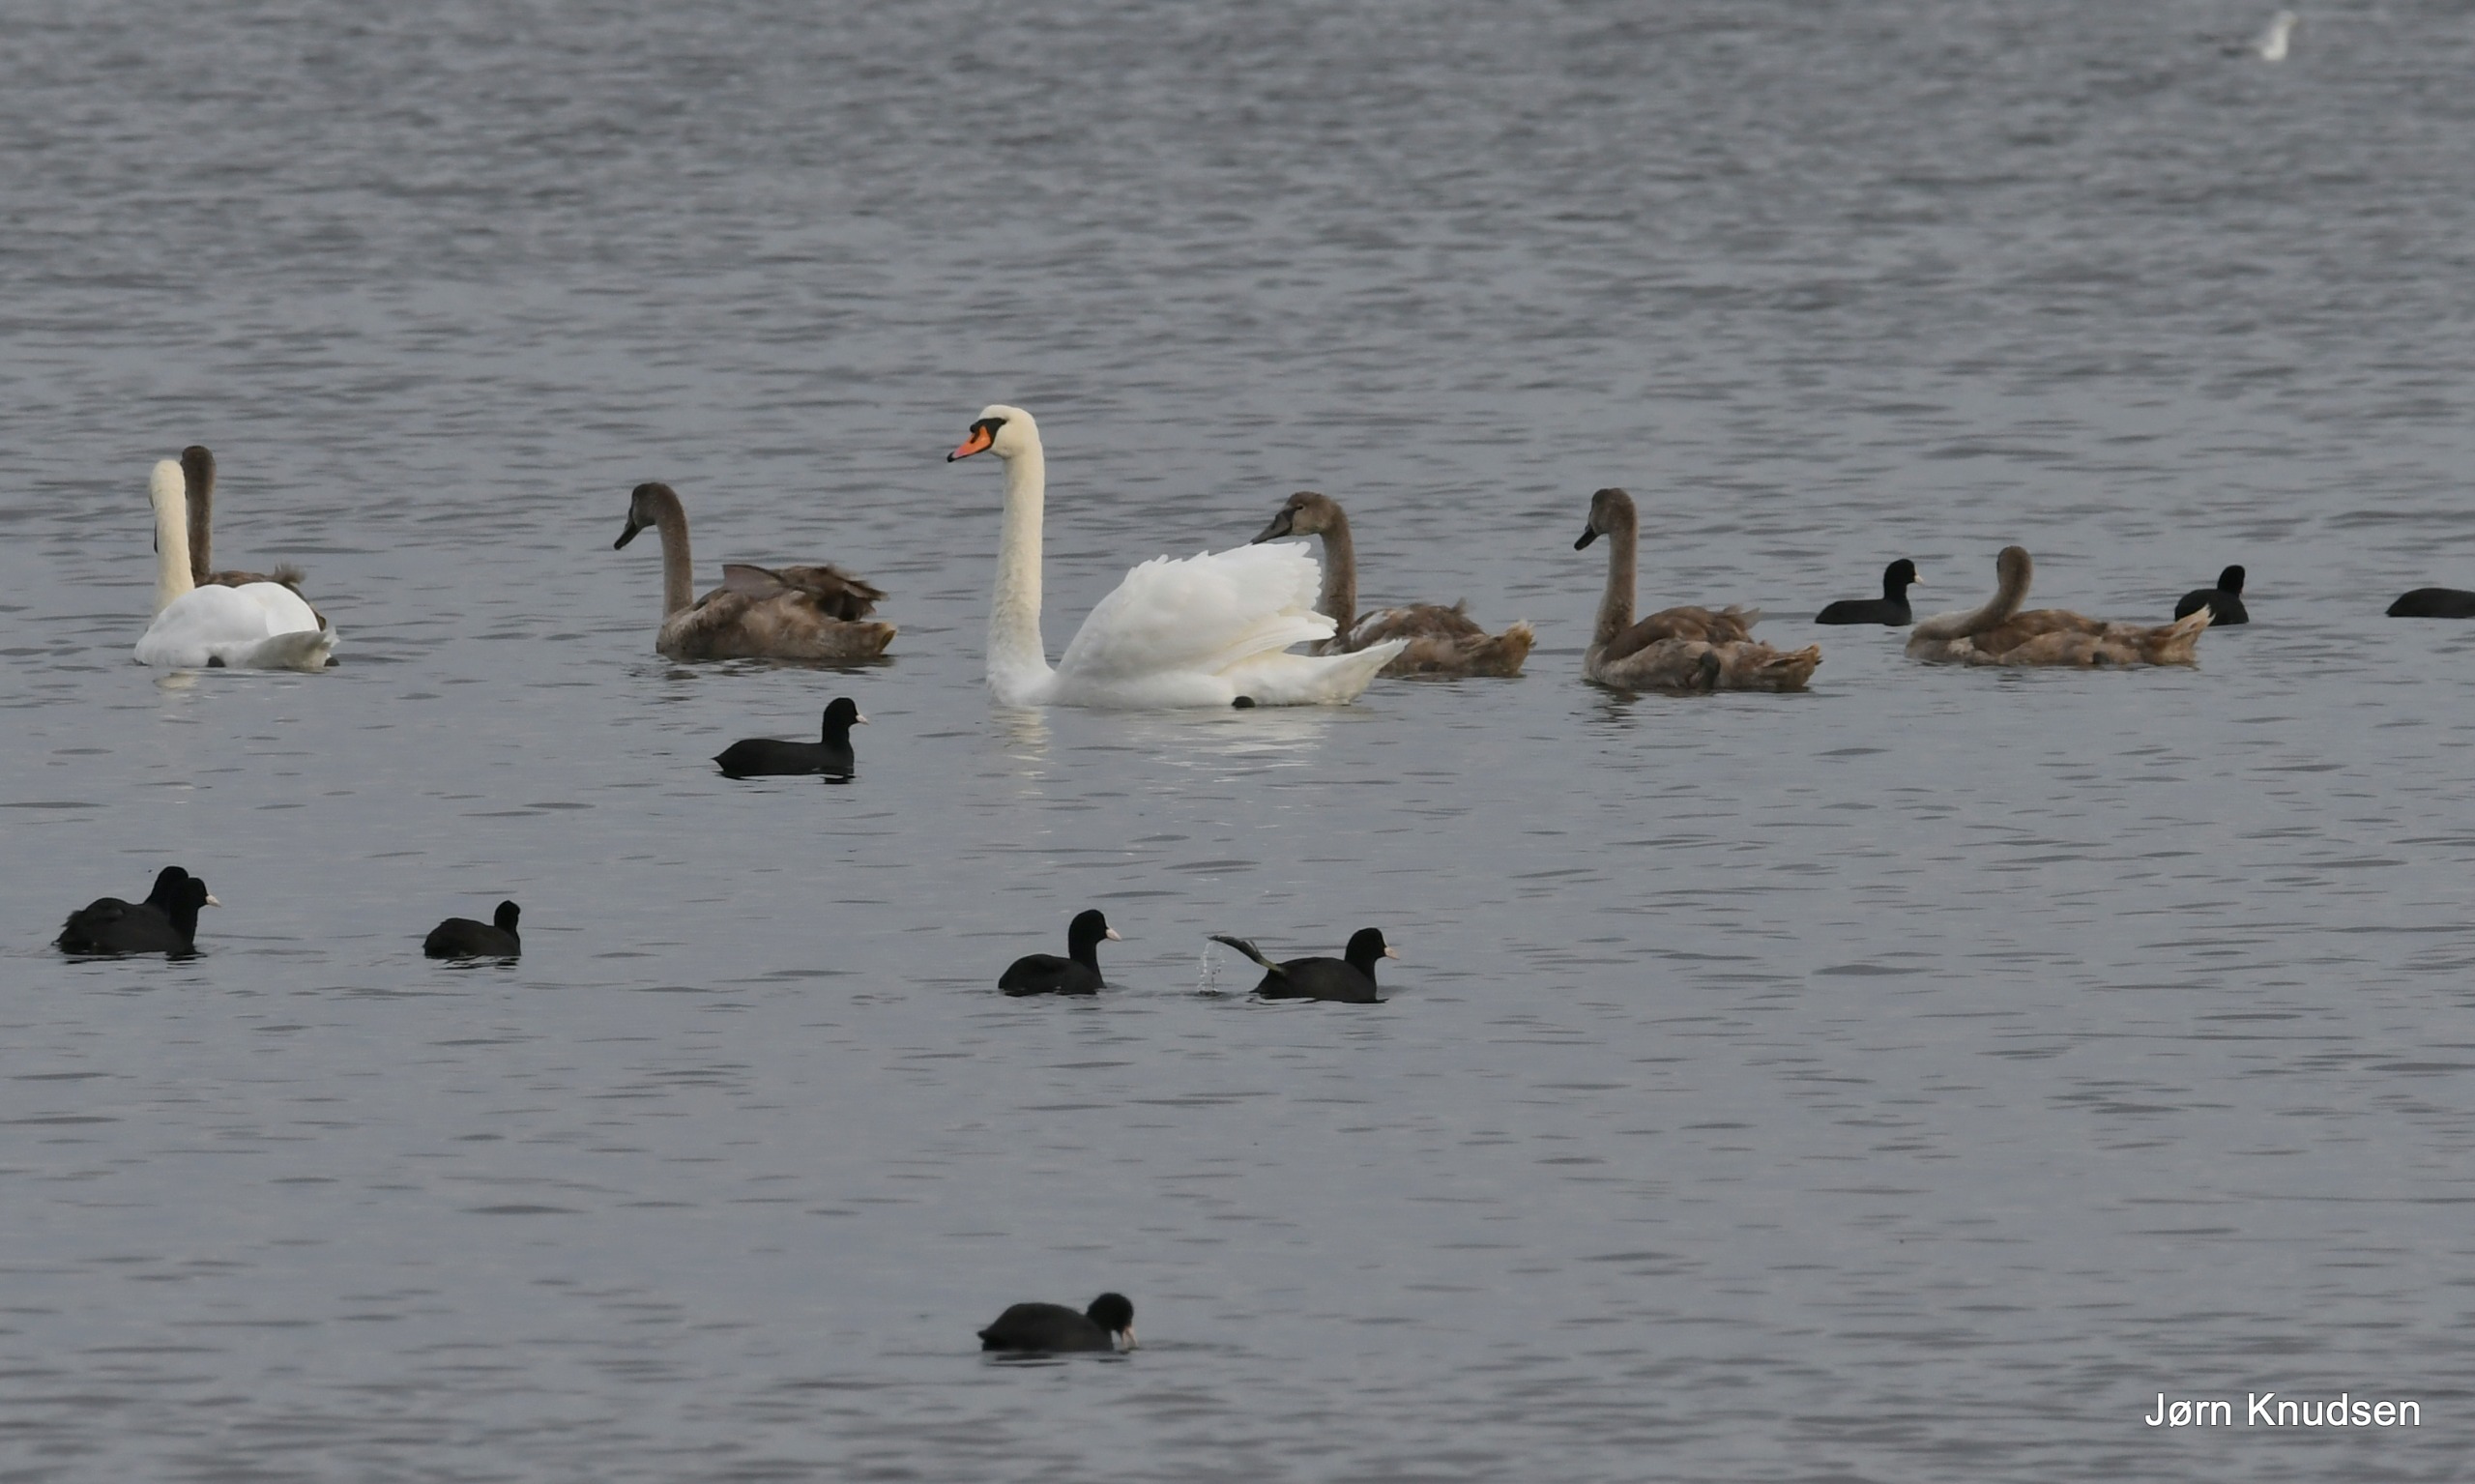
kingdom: Animalia
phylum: Chordata
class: Aves
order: Anseriformes
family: Anatidae
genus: Cygnus
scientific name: Cygnus olor
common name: Knopsvane
